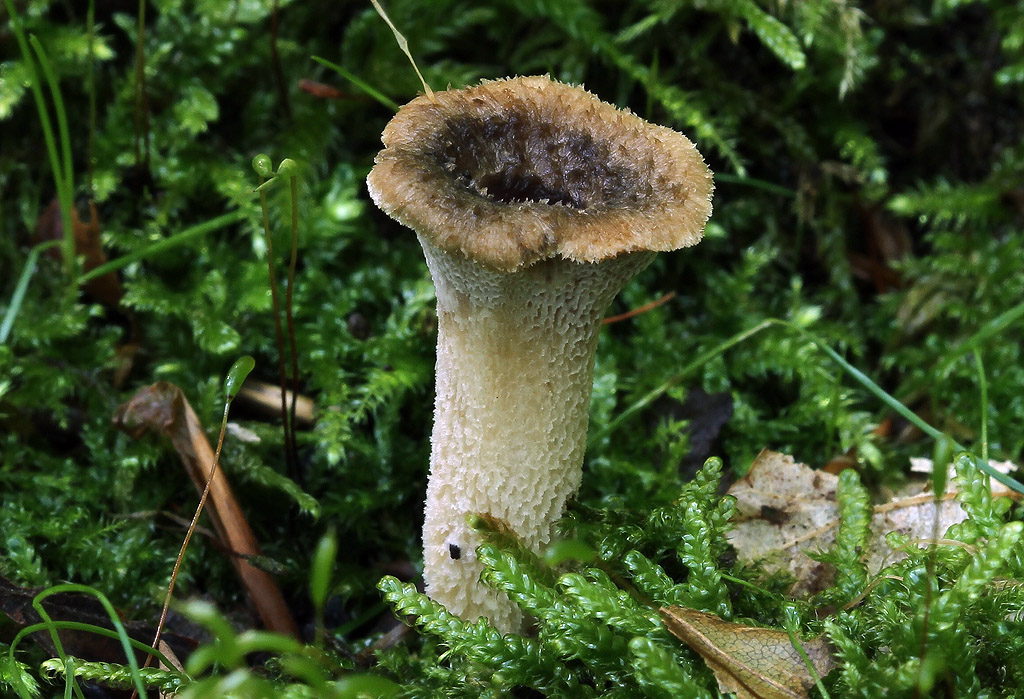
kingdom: Fungi
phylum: Basidiomycota
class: Agaricomycetes
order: Polyporales
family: Polyporaceae
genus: Polyporus
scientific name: Polyporus tuberaster
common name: knoldet stilkporesvamp
